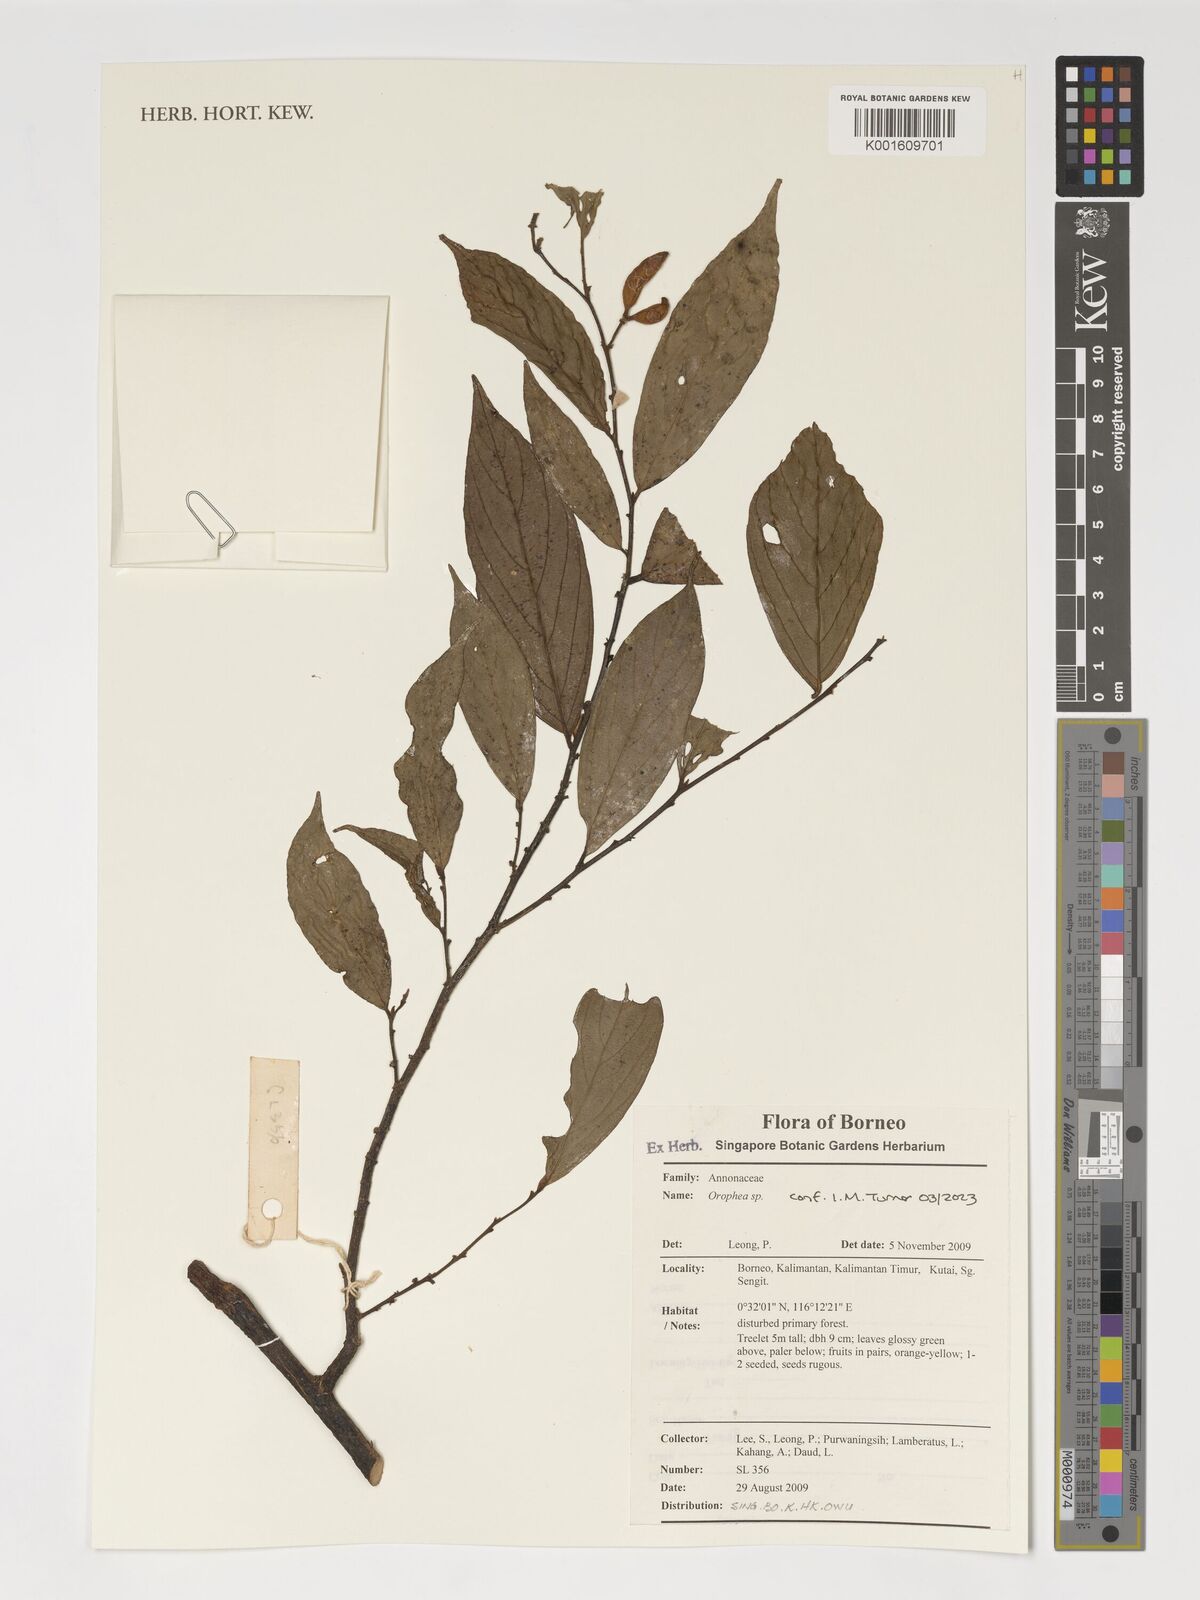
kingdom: Plantae
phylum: Tracheophyta
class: Magnoliopsida
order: Magnoliales
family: Annonaceae
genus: Orophea
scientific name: Orophea
